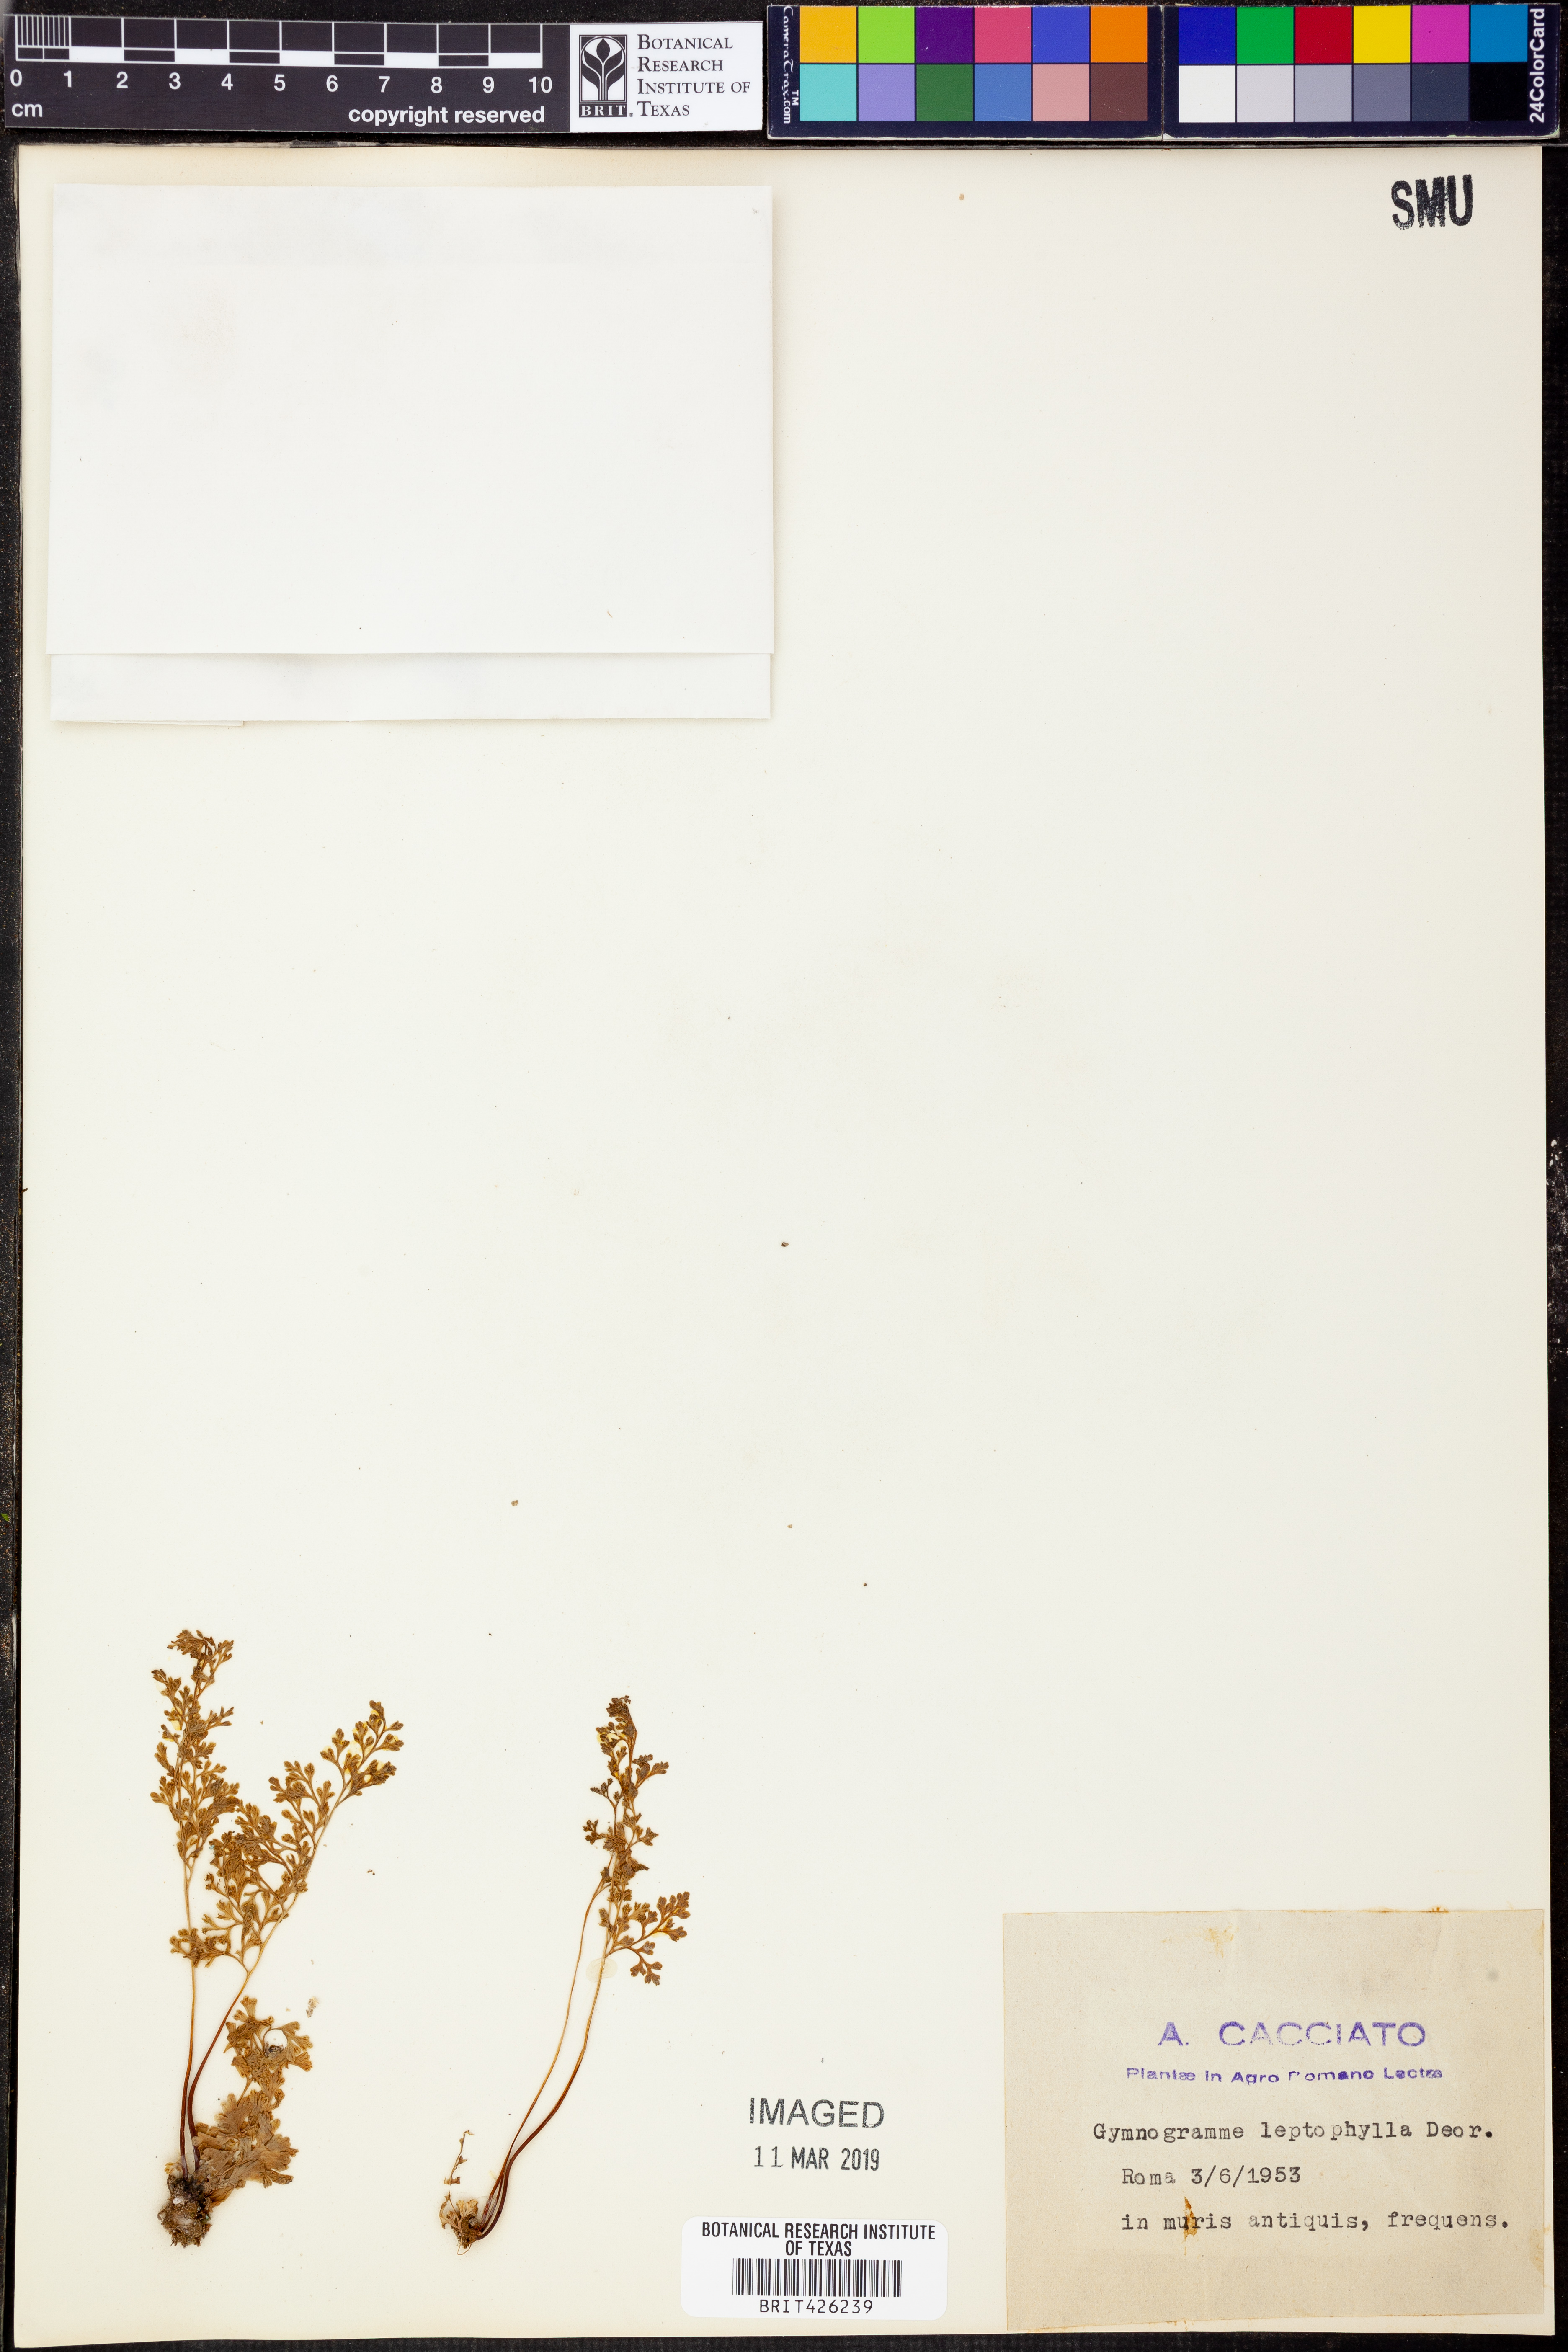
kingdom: Plantae
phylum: Tracheophyta
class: Polypodiopsida
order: Polypodiales
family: Pteridaceae
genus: Anogramma
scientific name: Anogramma leptophylla
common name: Jersey fern
